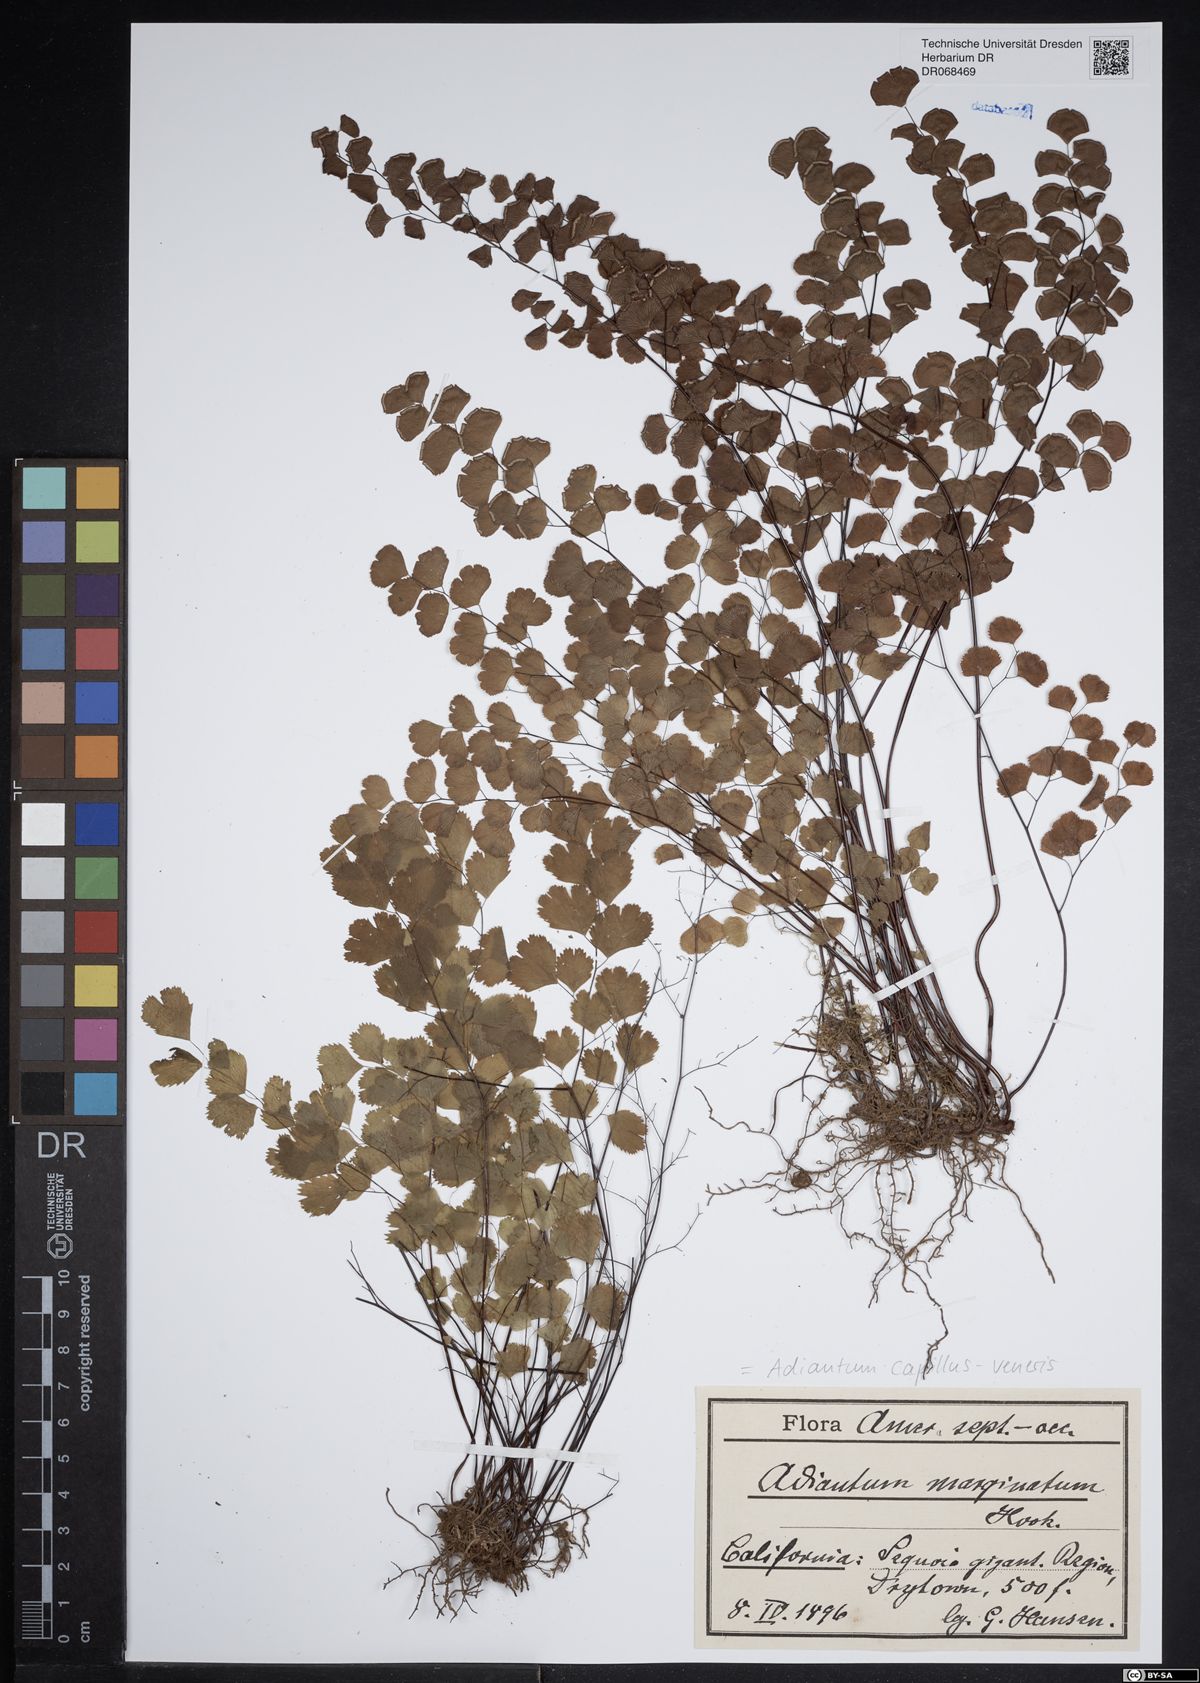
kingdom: Plantae
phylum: Tracheophyta
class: Polypodiopsida
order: Polypodiales
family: Pteridaceae
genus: Adiantum
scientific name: Adiantum capillus-veneris
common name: Maidenhair fern
